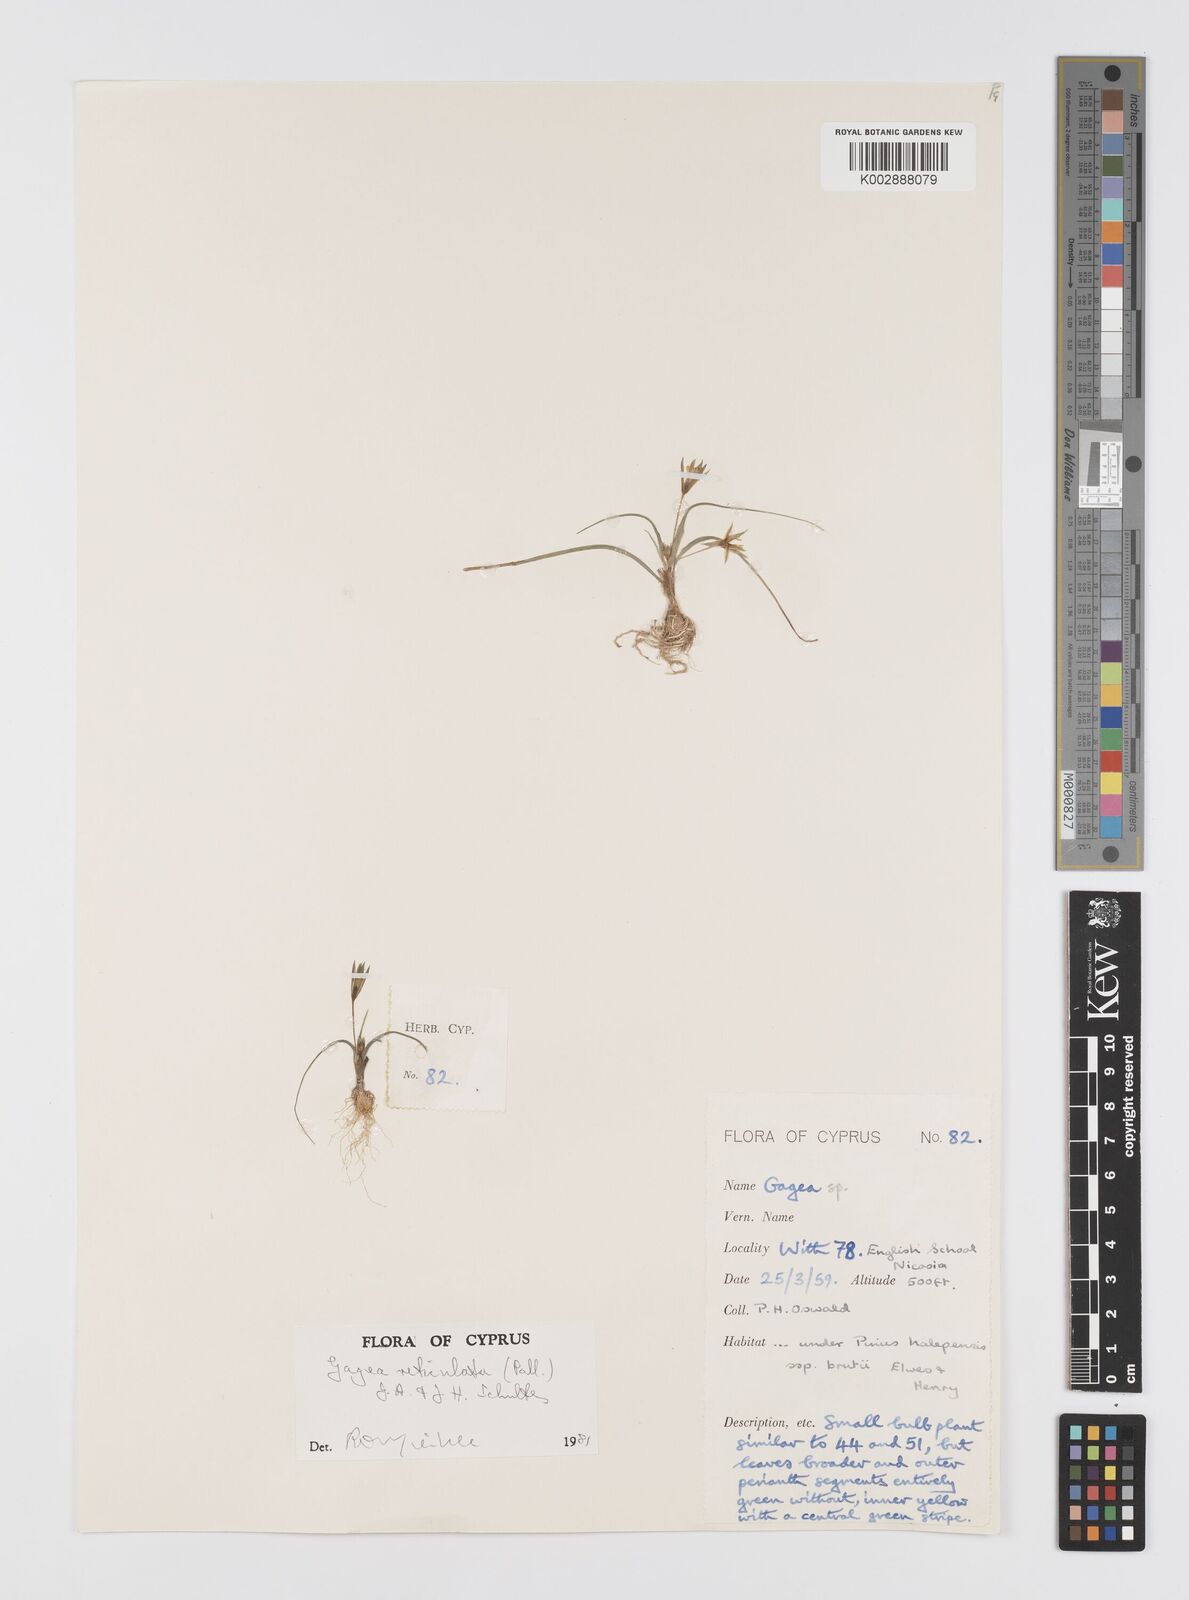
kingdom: Plantae
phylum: Tracheophyta
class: Liliopsida
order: Liliales
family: Liliaceae
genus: Gagea
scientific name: Gagea reticulata
